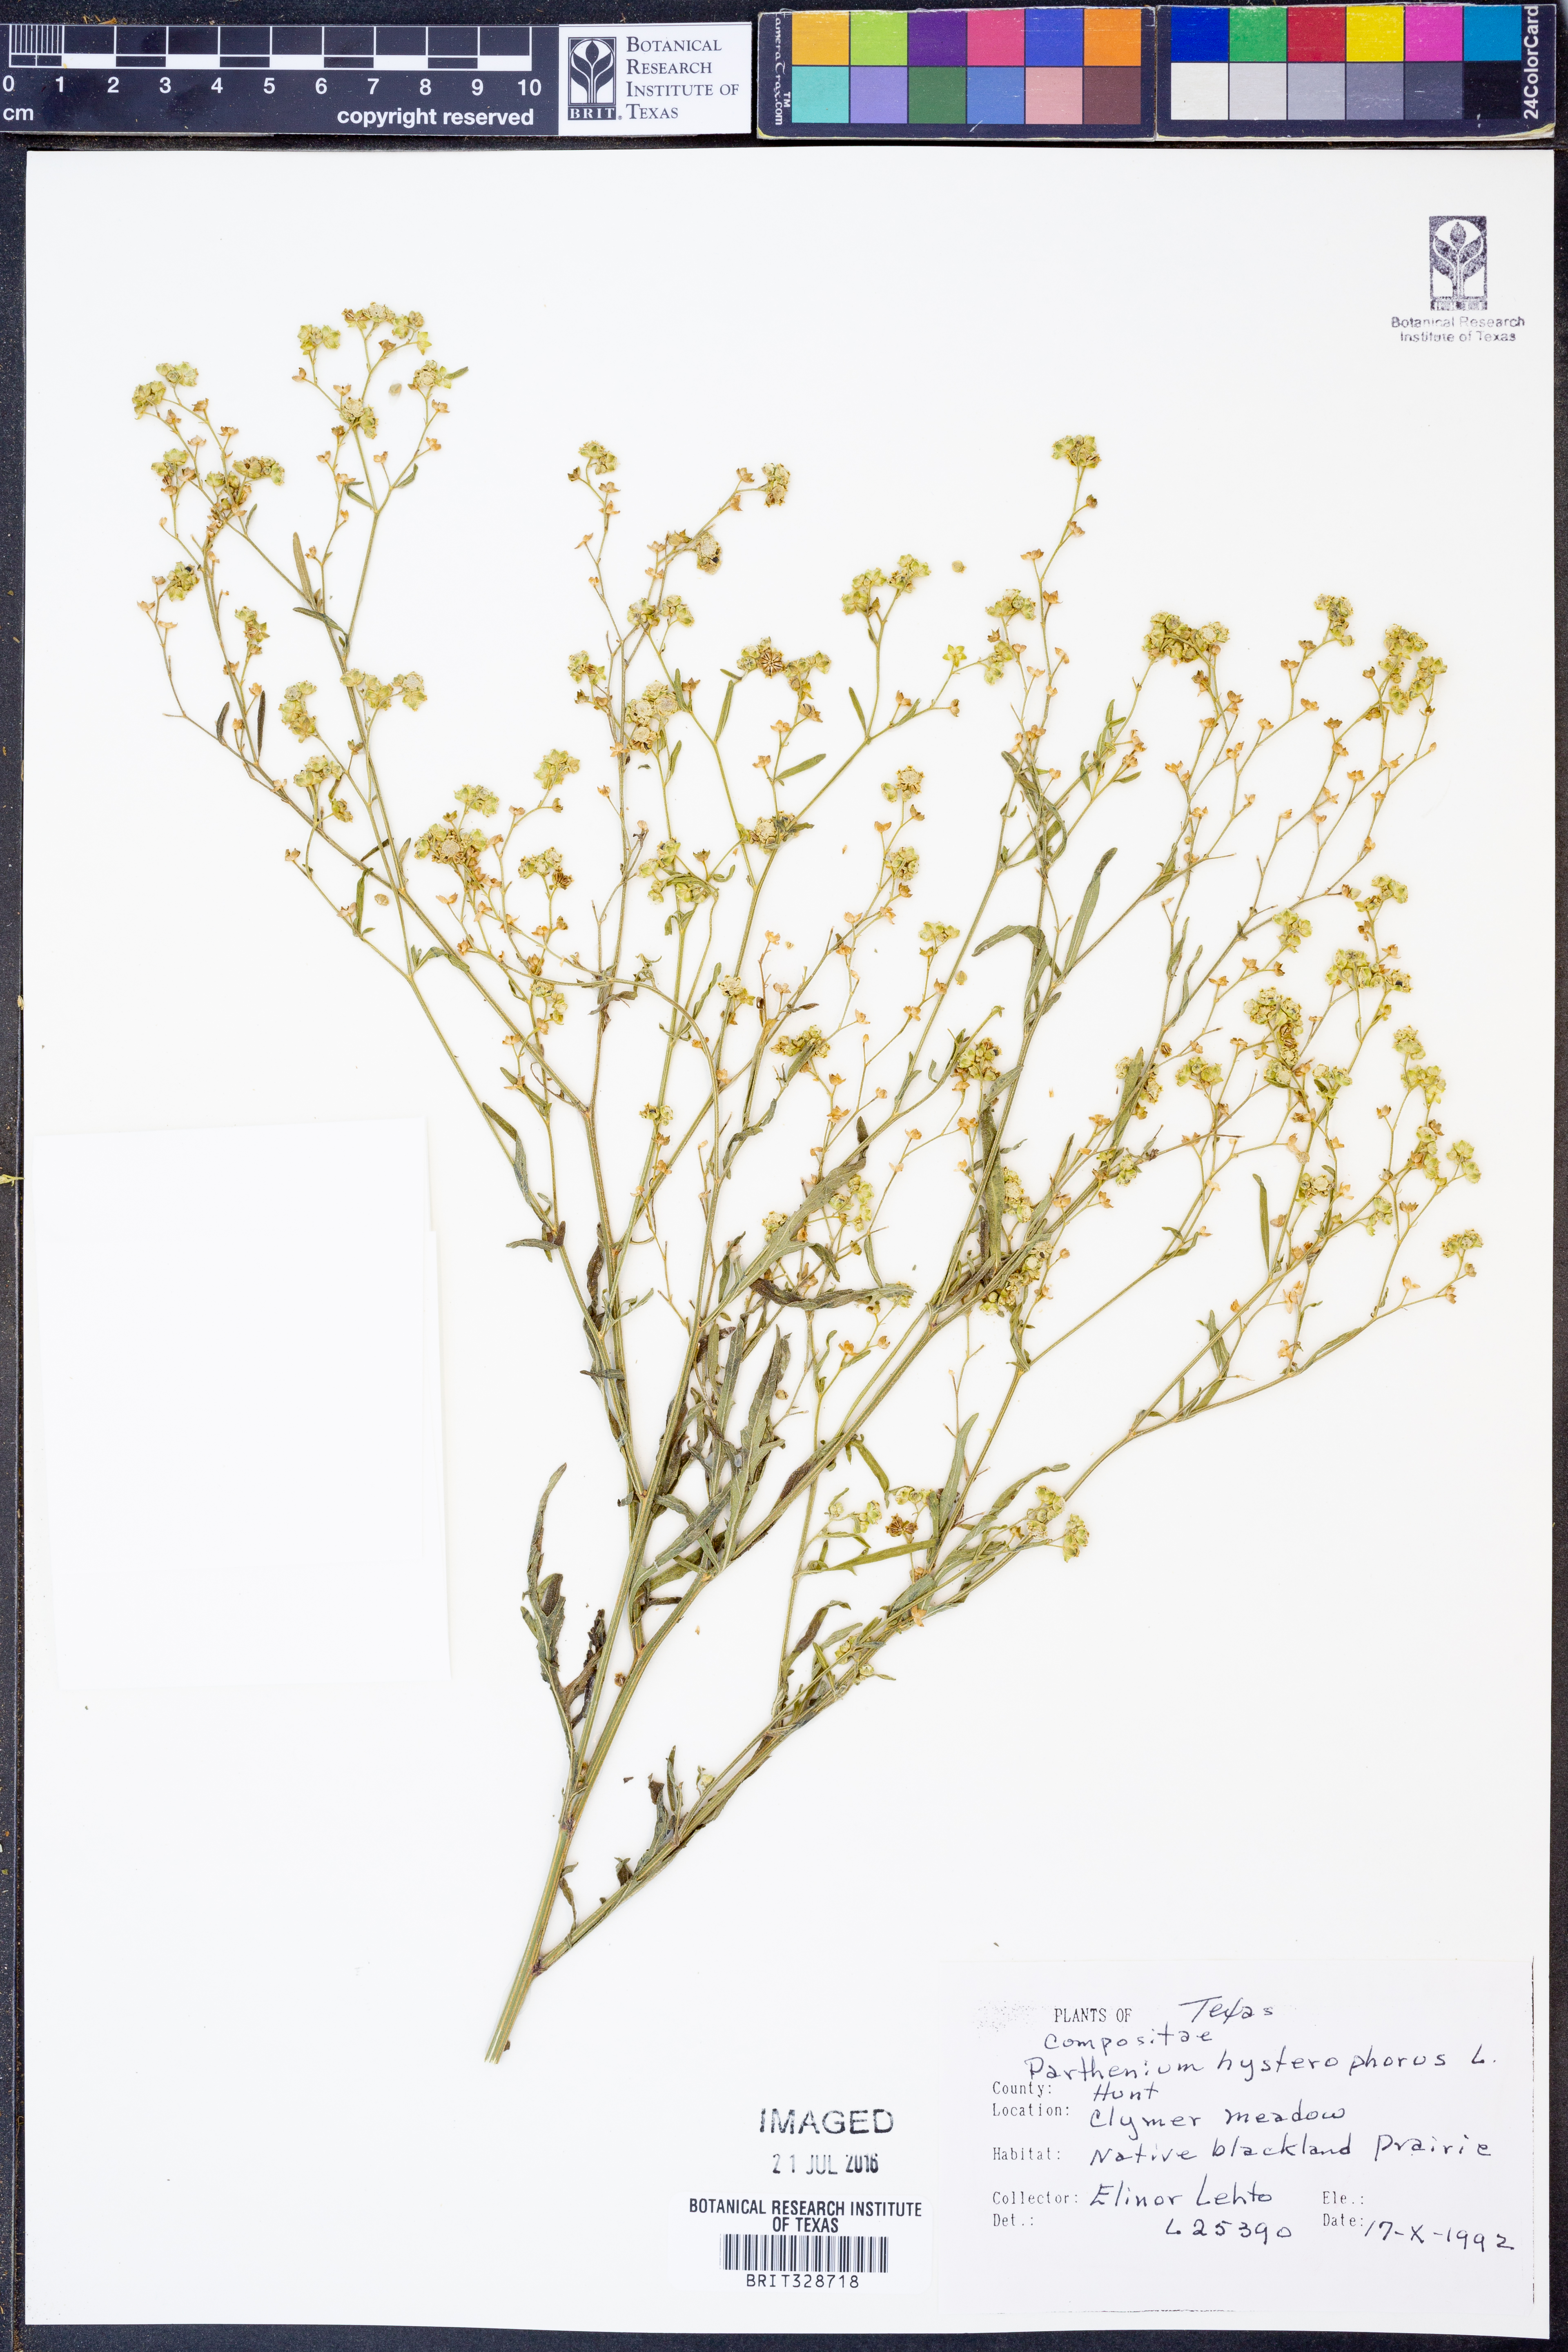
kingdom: Plantae
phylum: Tracheophyta
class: Magnoliopsida
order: Asterales
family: Asteraceae
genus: Parthenium
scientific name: Parthenium hysterophorus
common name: Santa maria feverfew
